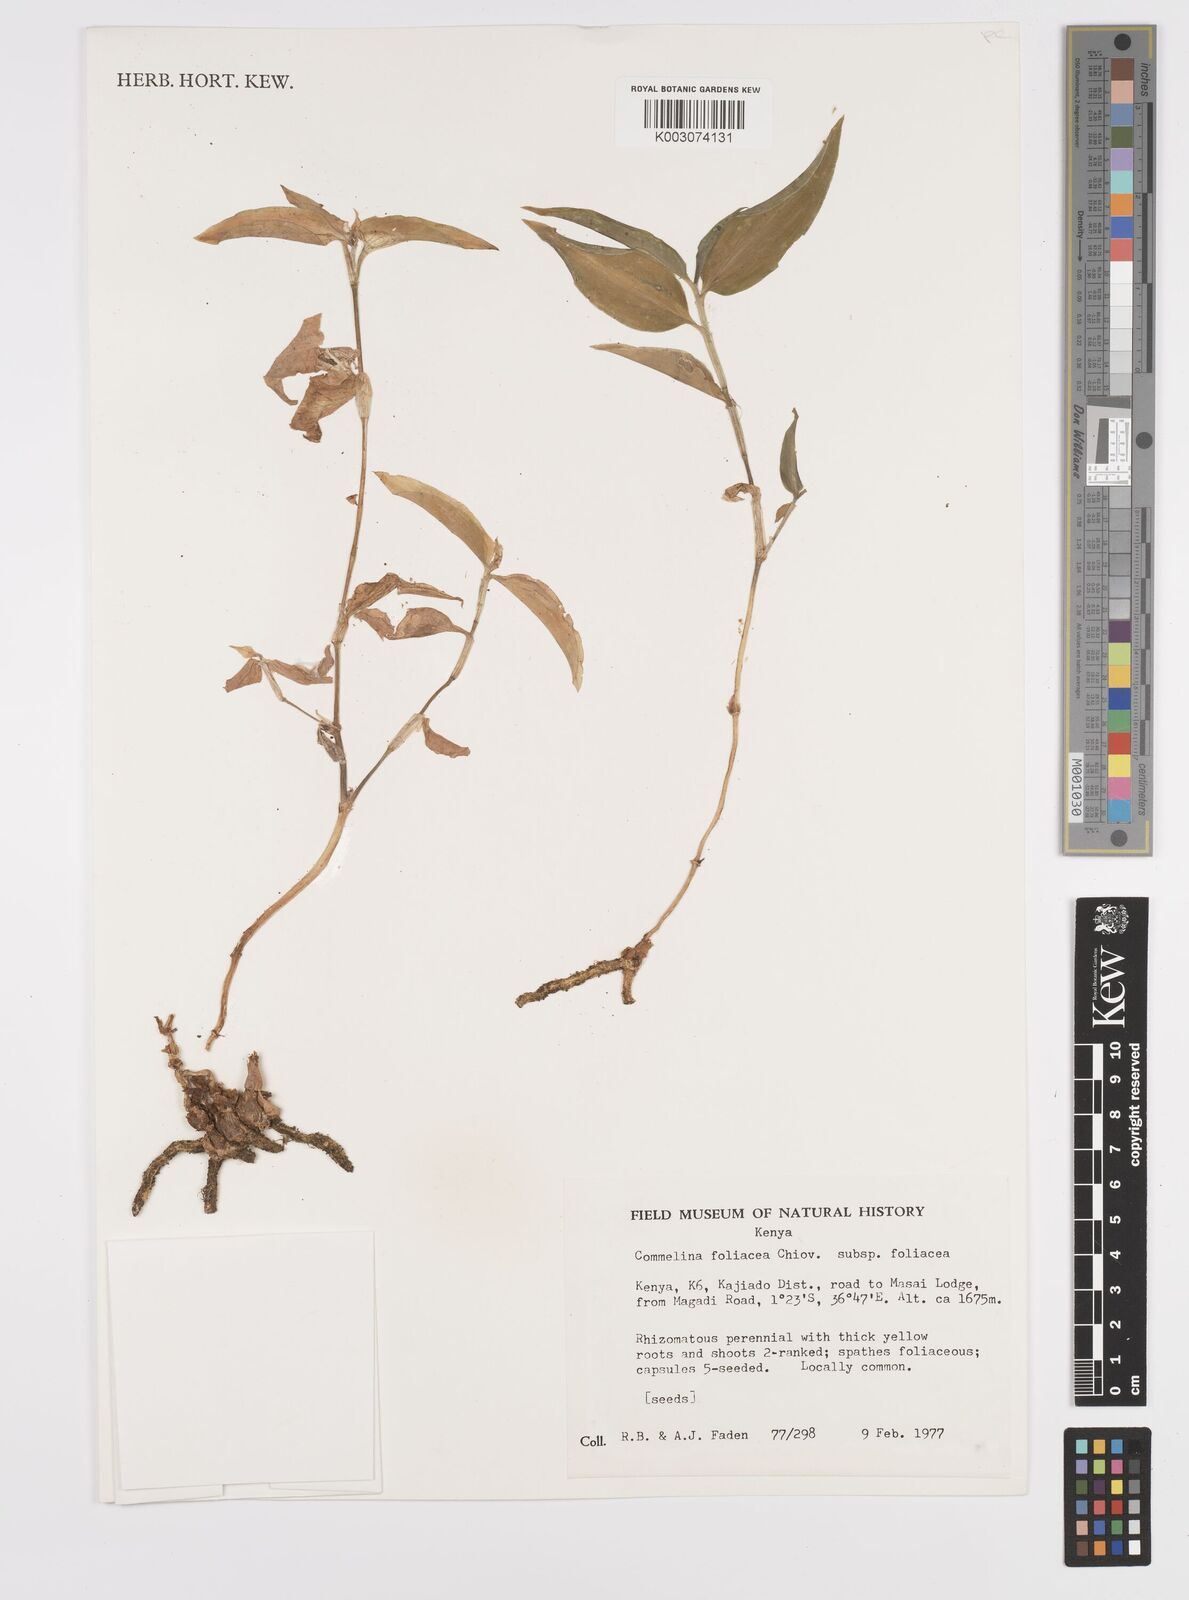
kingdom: Plantae
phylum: Tracheophyta
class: Liliopsida
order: Commelinales
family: Commelinaceae
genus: Commelina
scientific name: Commelina foliacea
